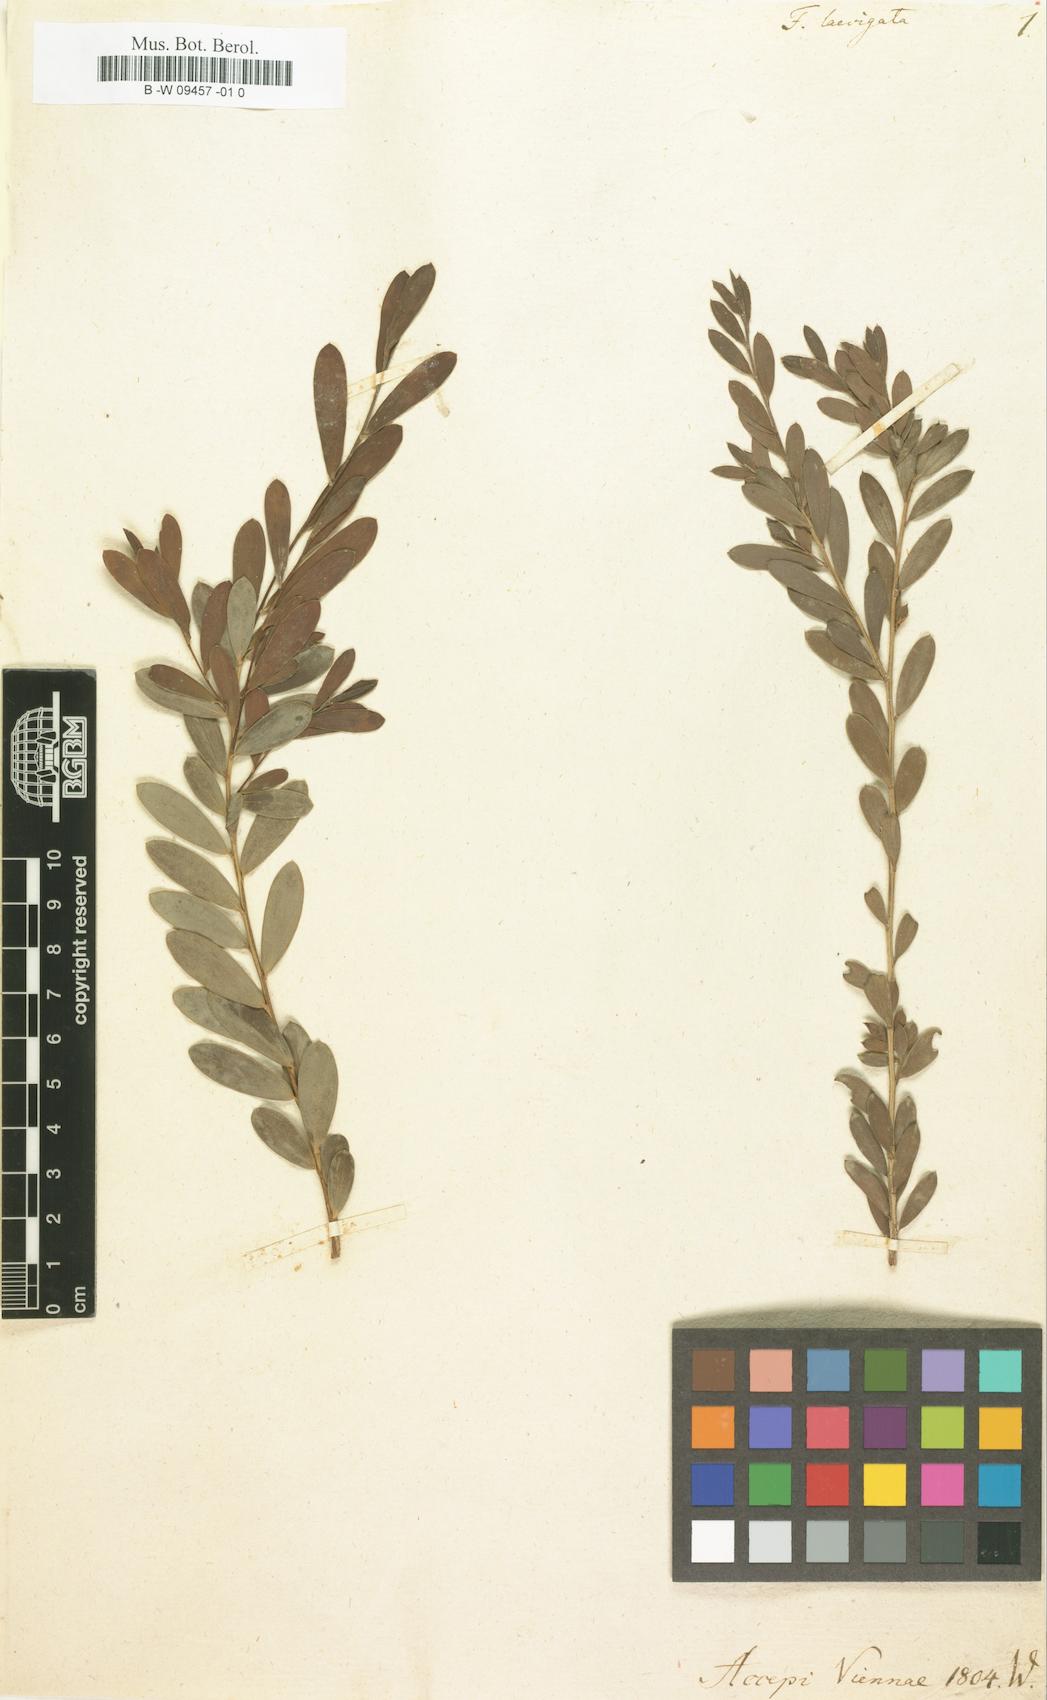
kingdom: Plantae
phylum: Tracheophyta
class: Magnoliopsida
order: Myrtales
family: Myrtaceae
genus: Leptospermum
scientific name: Leptospermum laevigatum
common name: Australian teatree
